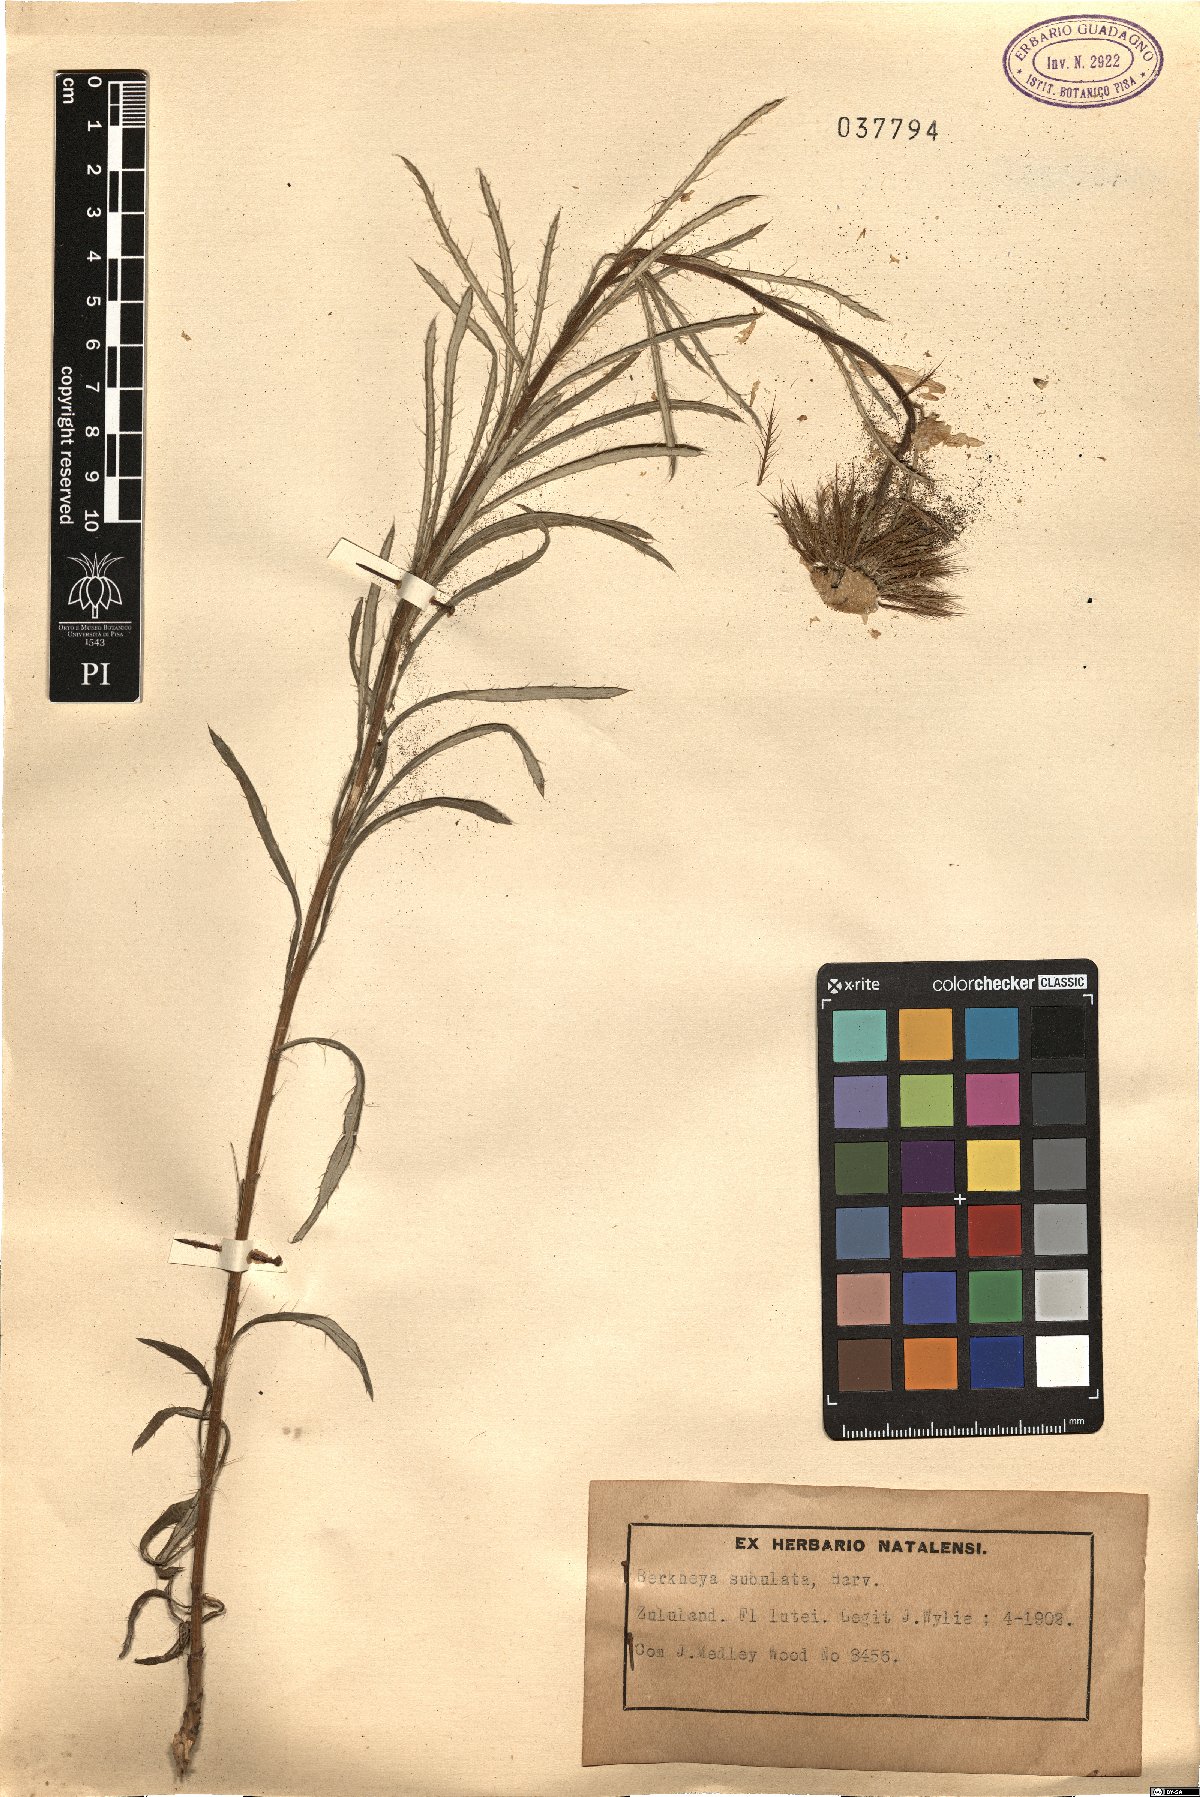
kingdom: Plantae
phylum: Tracheophyta
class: Magnoliopsida
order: Asterales
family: Asteraceae
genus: Berkheya
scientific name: Berkheya subulata
